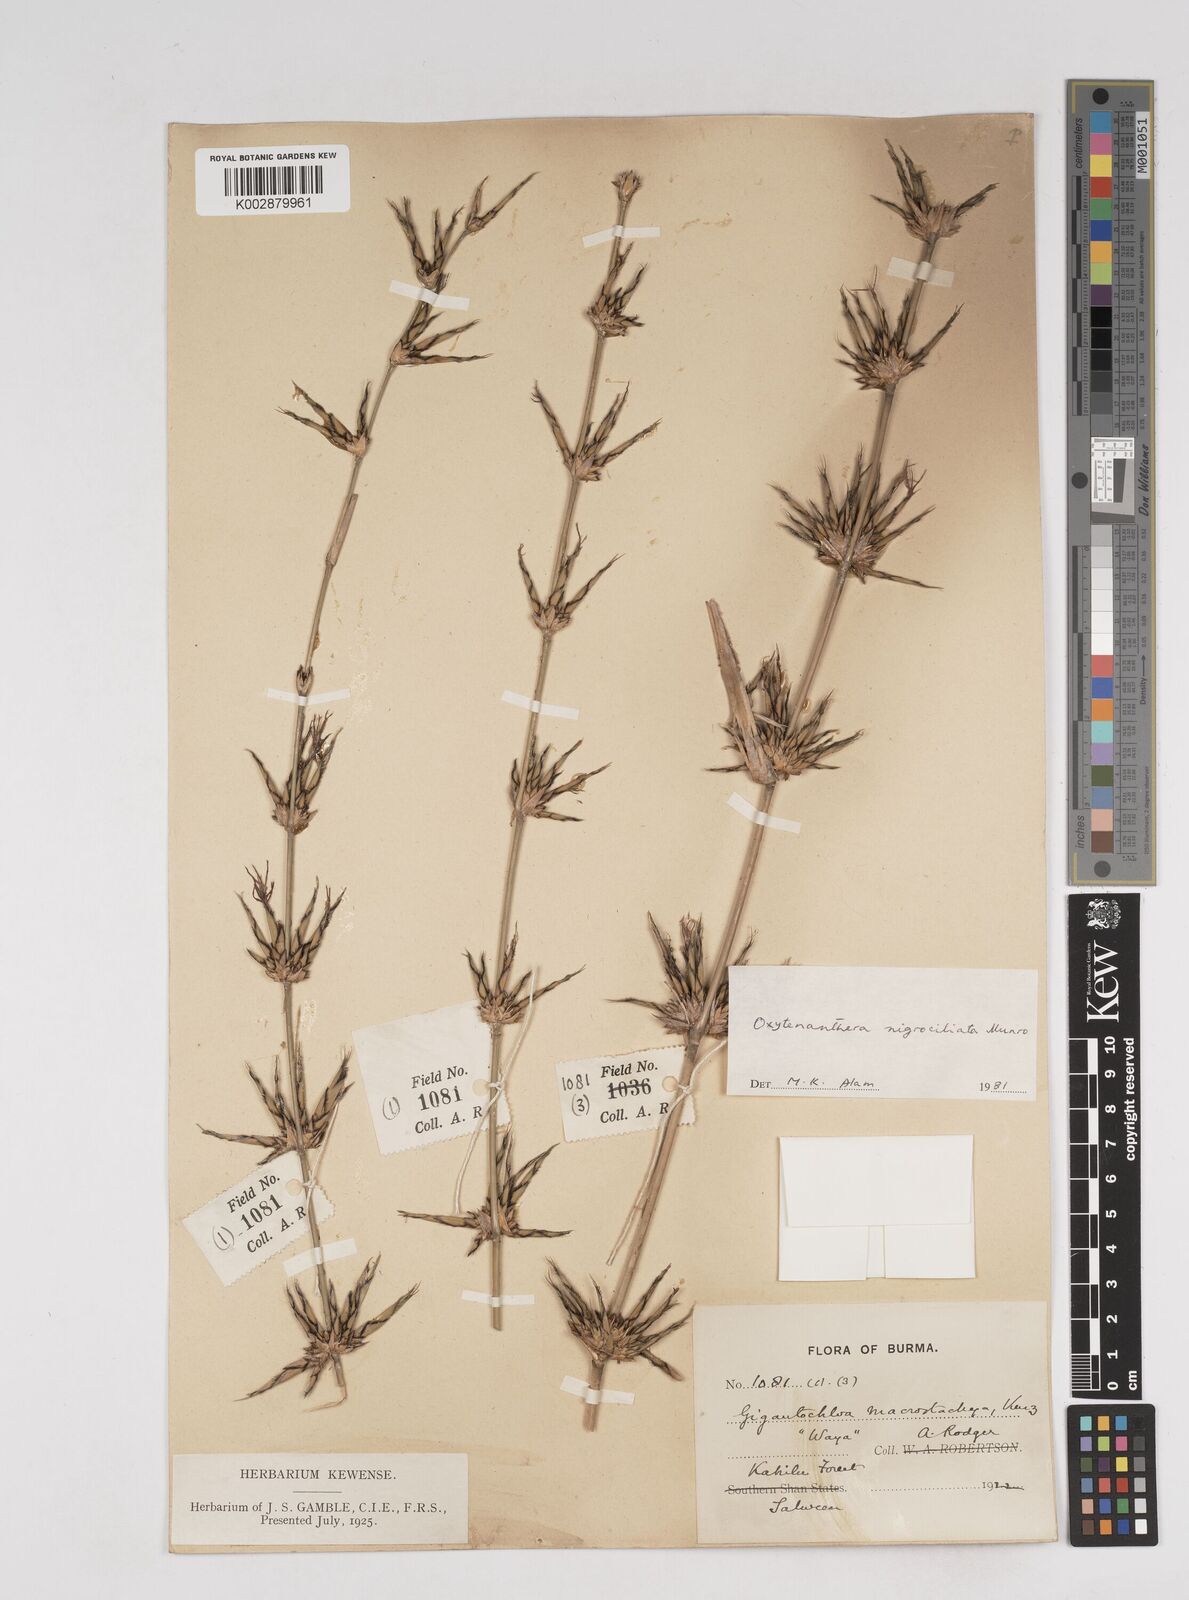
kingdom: Plantae
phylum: Tracheophyta
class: Liliopsida
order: Poales
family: Poaceae
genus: Gigantochloa
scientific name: Gigantochloa nigrociliata
